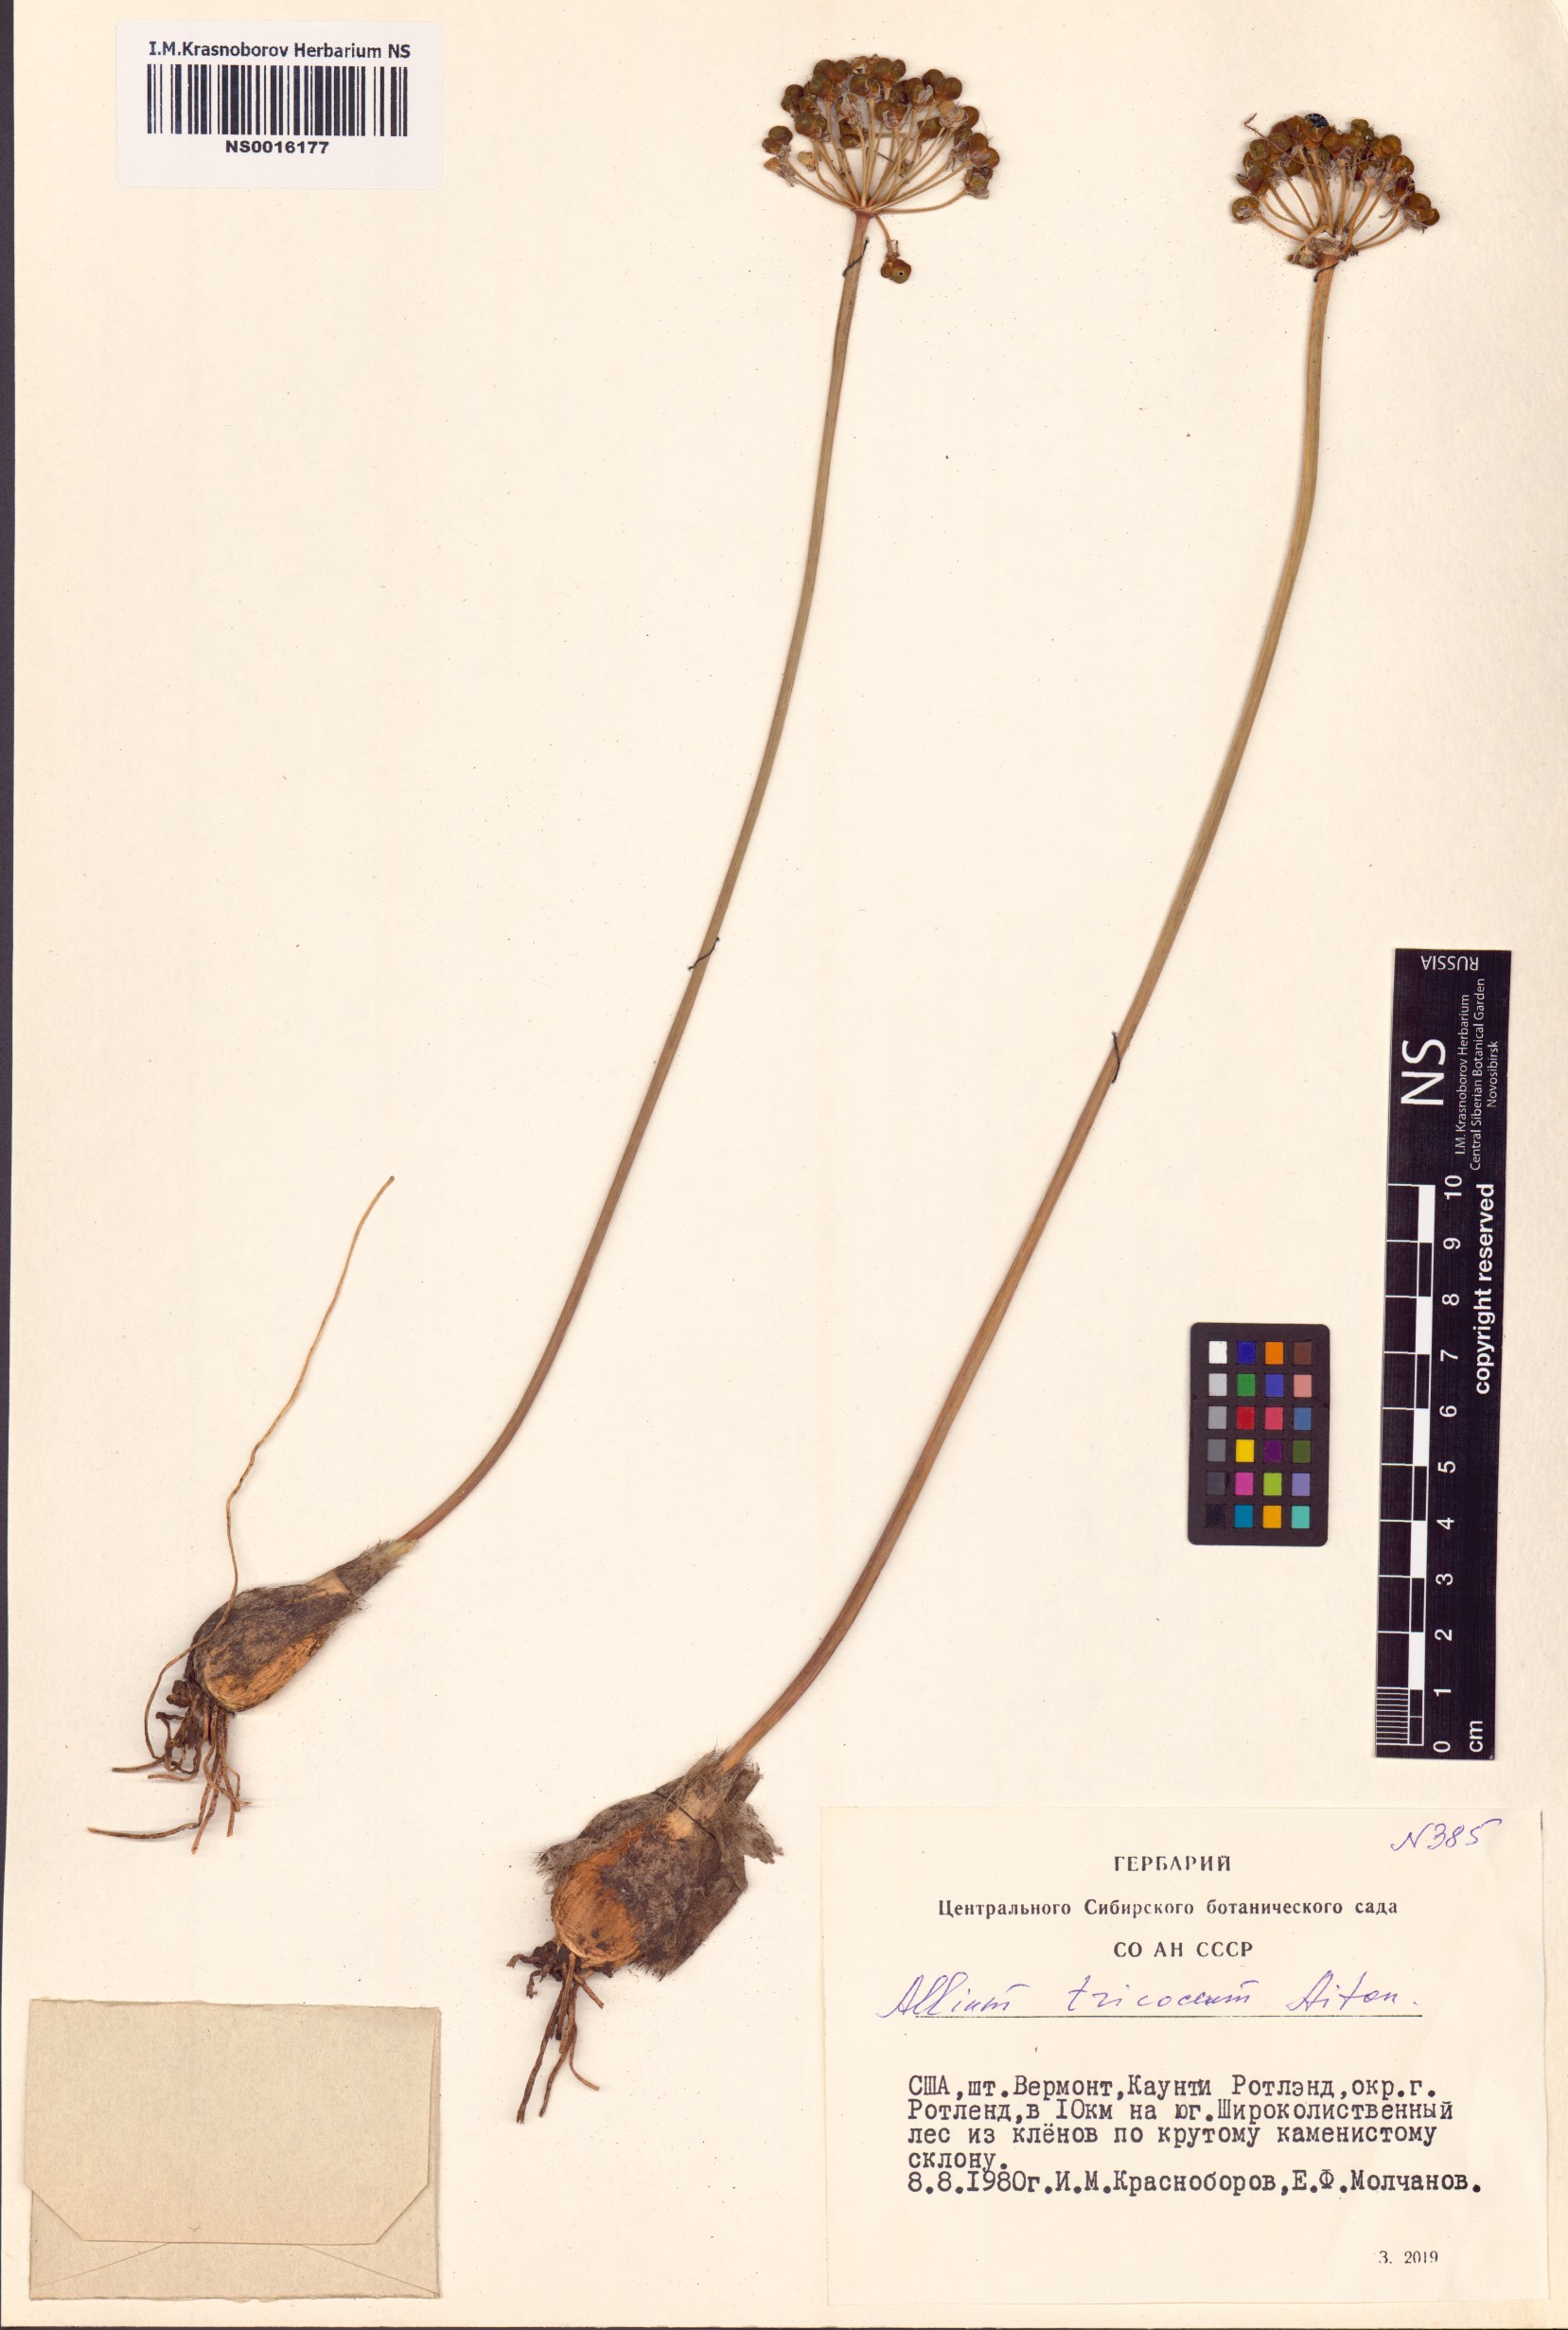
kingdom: Plantae
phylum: Tracheophyta
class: Liliopsida
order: Asparagales
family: Amaryllidaceae
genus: Allium
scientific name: Allium tricoccum
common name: Ramp
